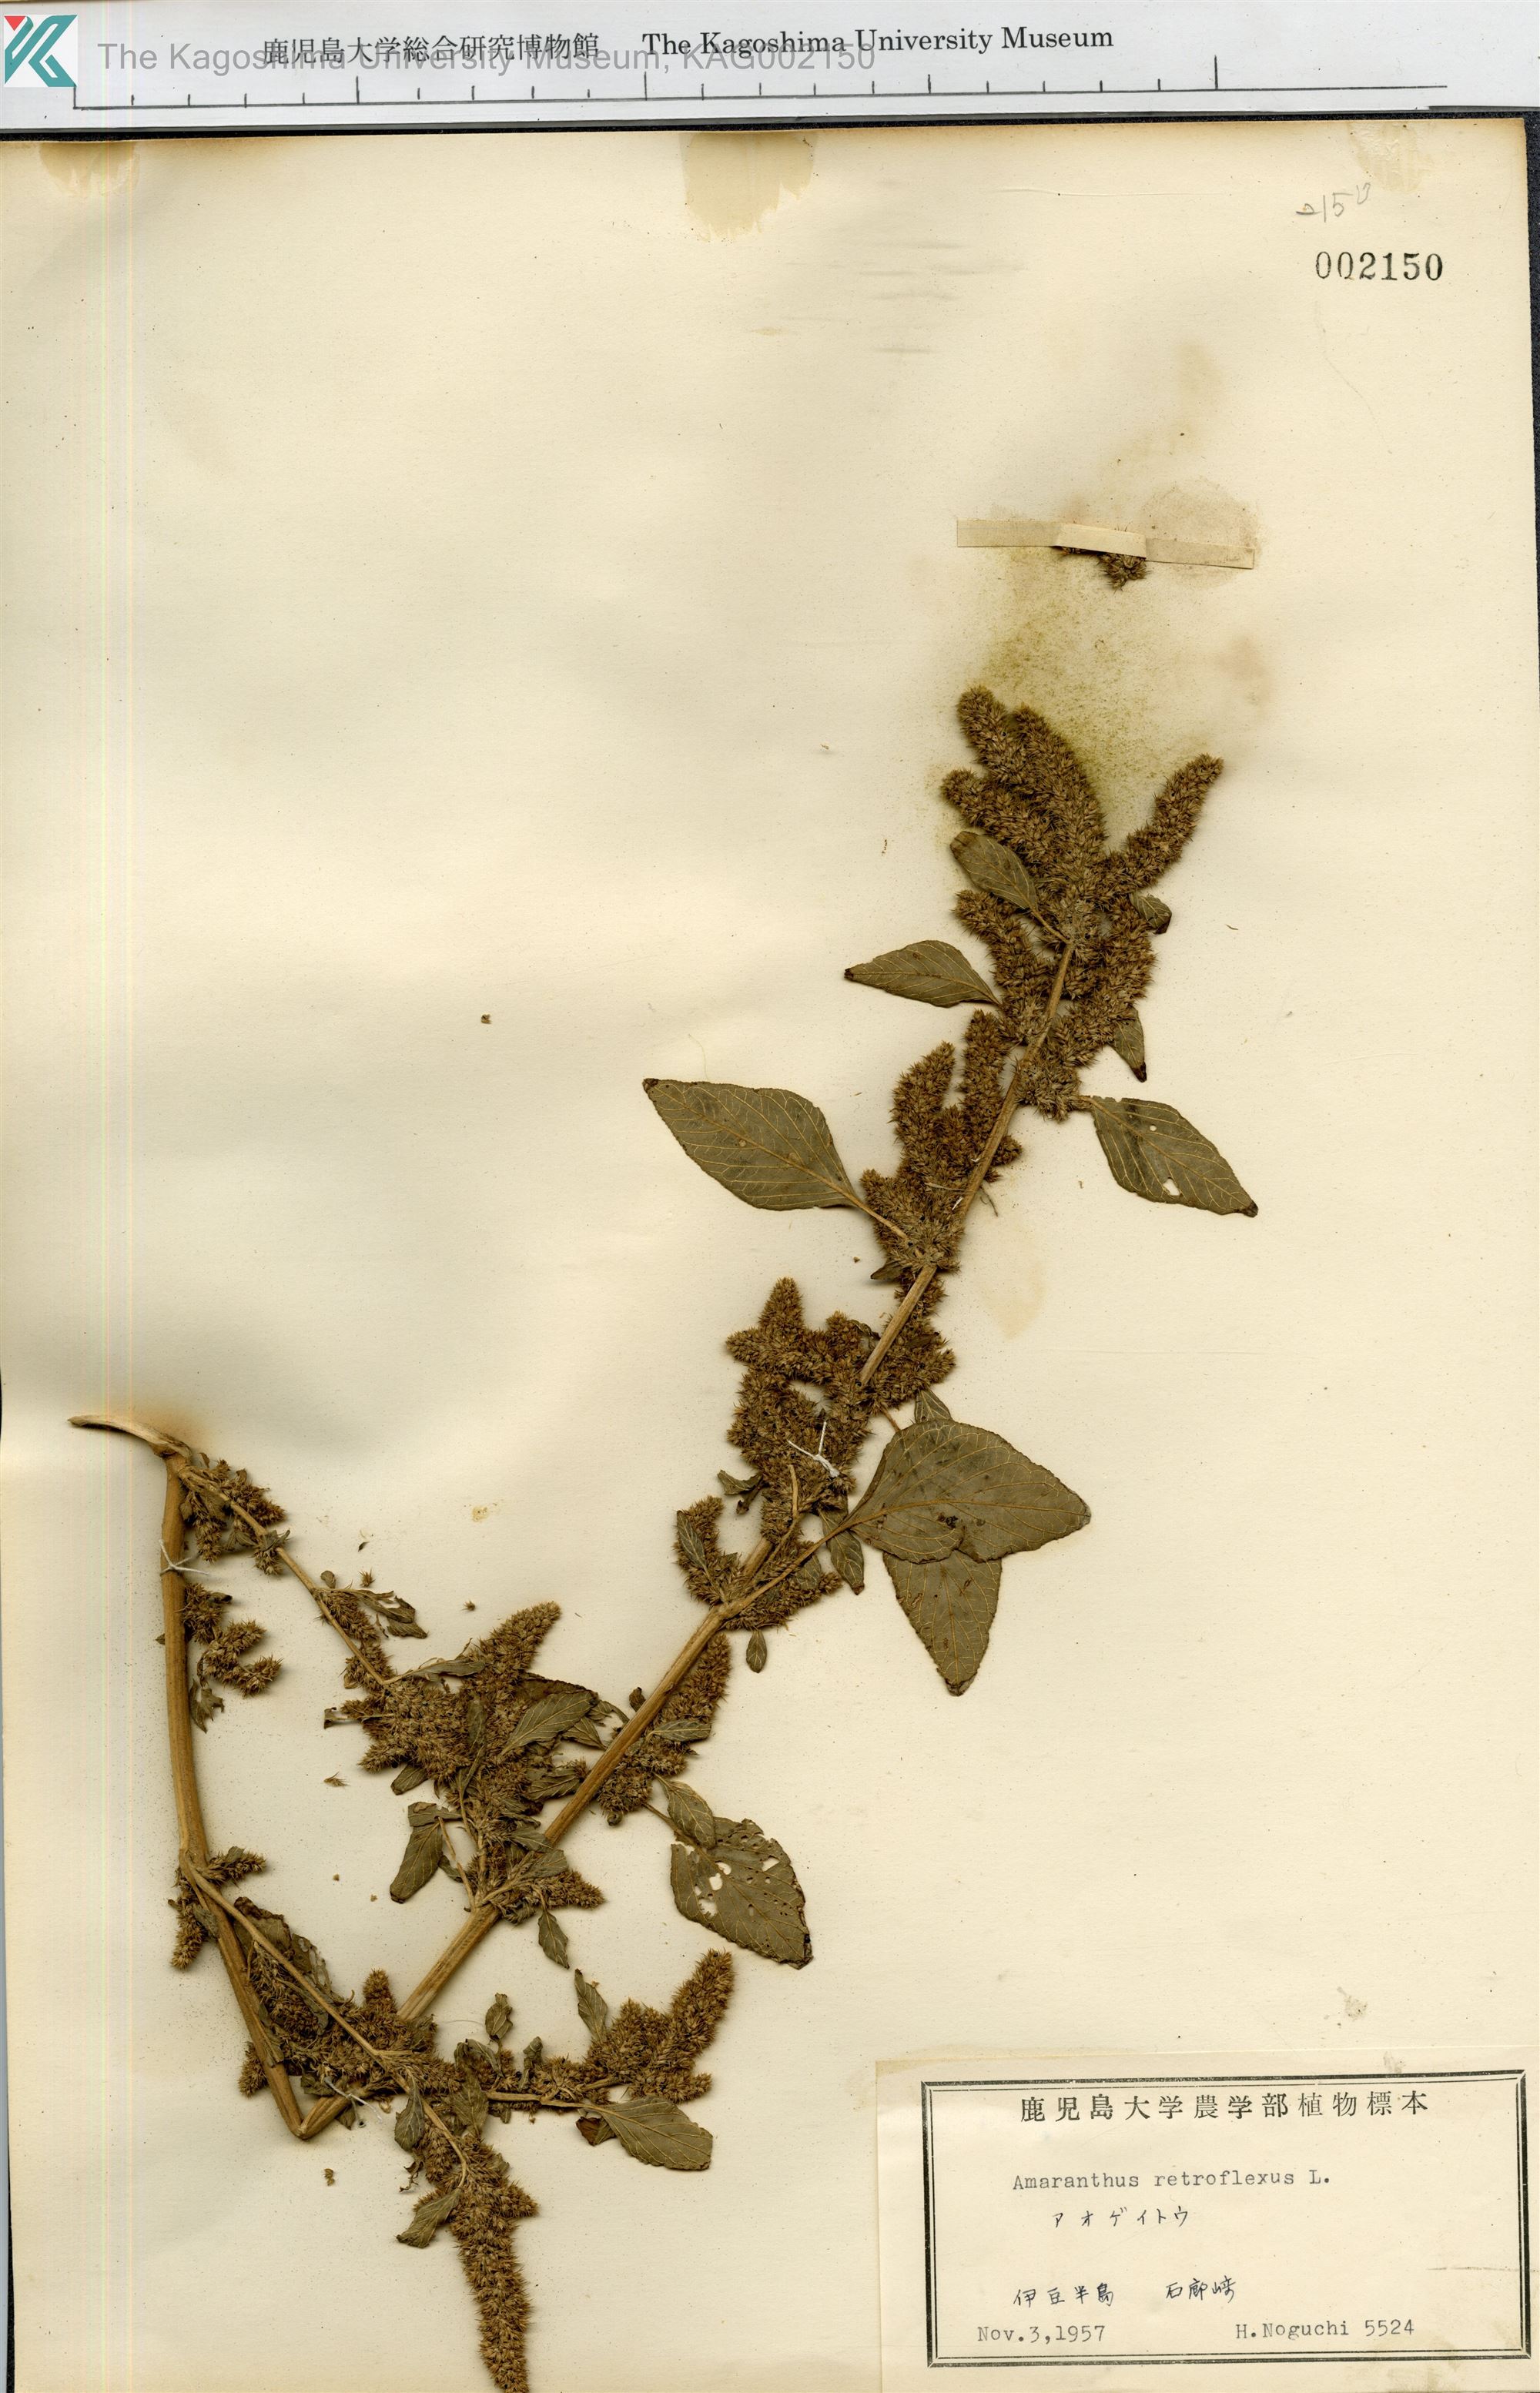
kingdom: Plantae
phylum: Tracheophyta
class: Magnoliopsida
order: Caryophyllales
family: Amaranthaceae
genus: Amaranthus
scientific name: Amaranthus retroflexus
